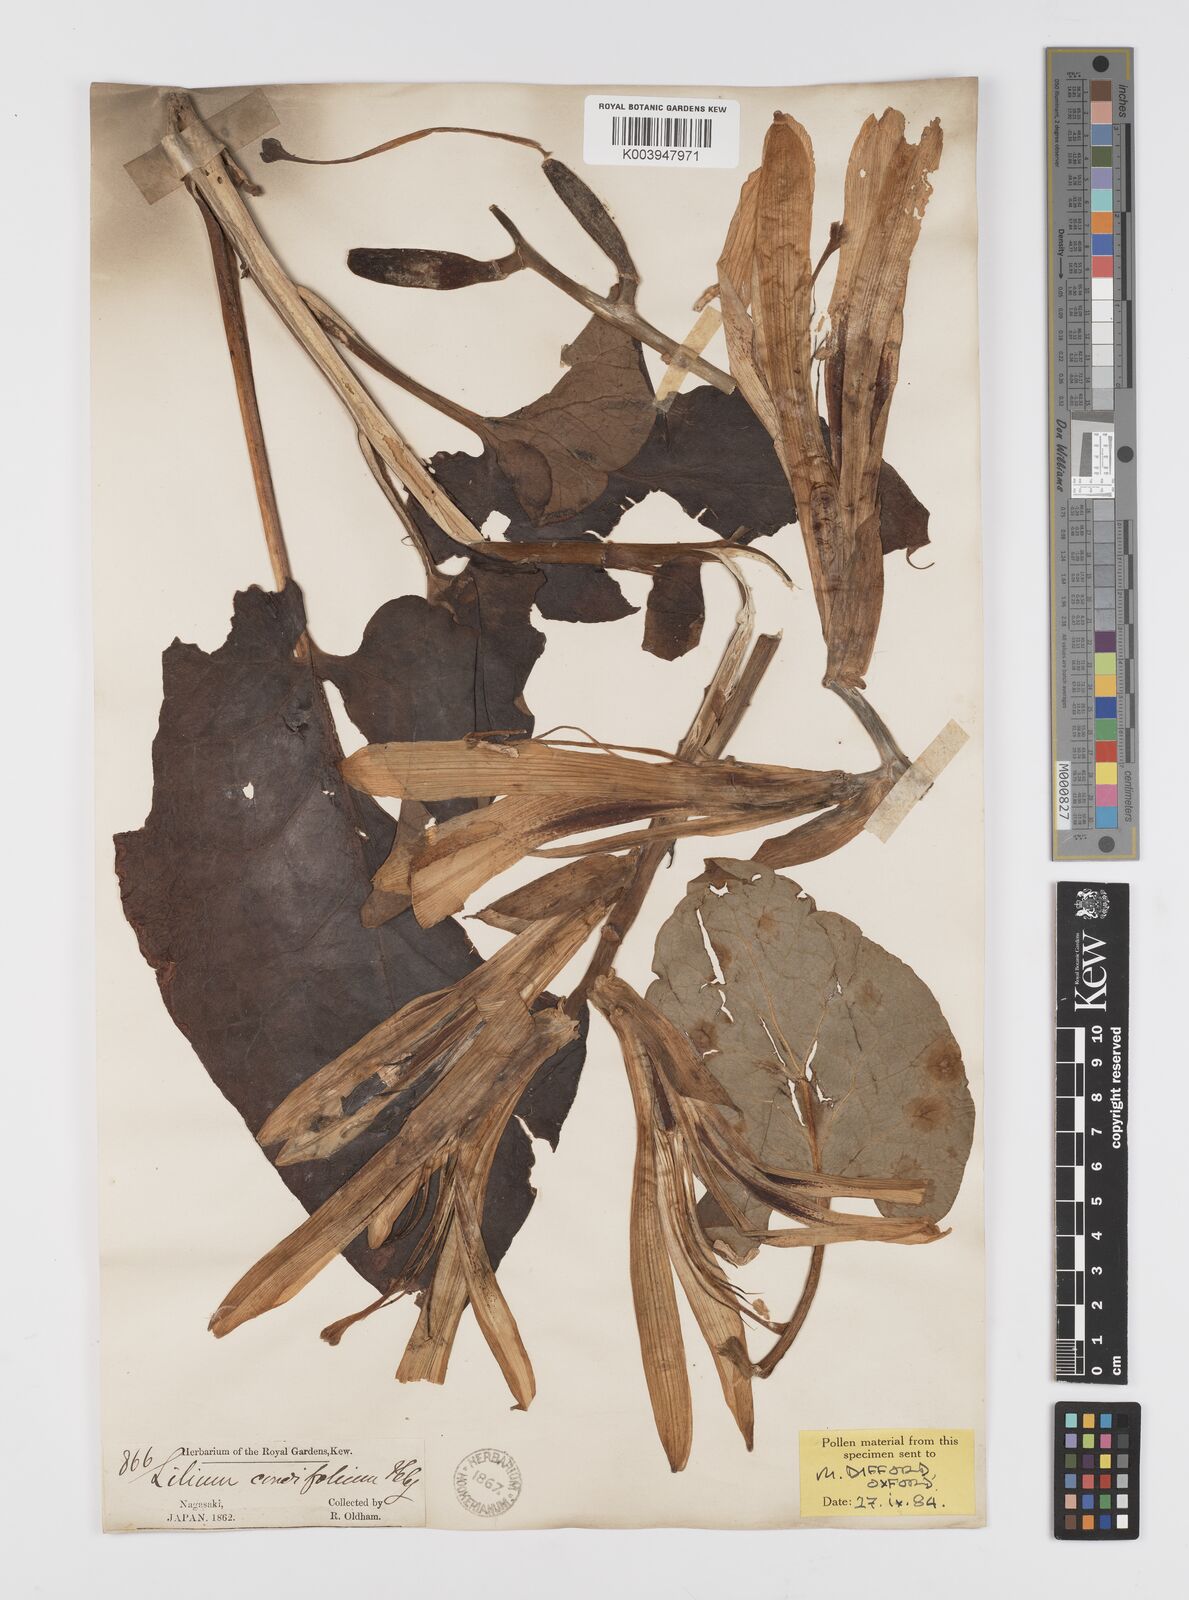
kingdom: Plantae
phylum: Tracheophyta
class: Liliopsida
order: Liliales
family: Liliaceae
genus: Cardiocrinum
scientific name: Cardiocrinum
